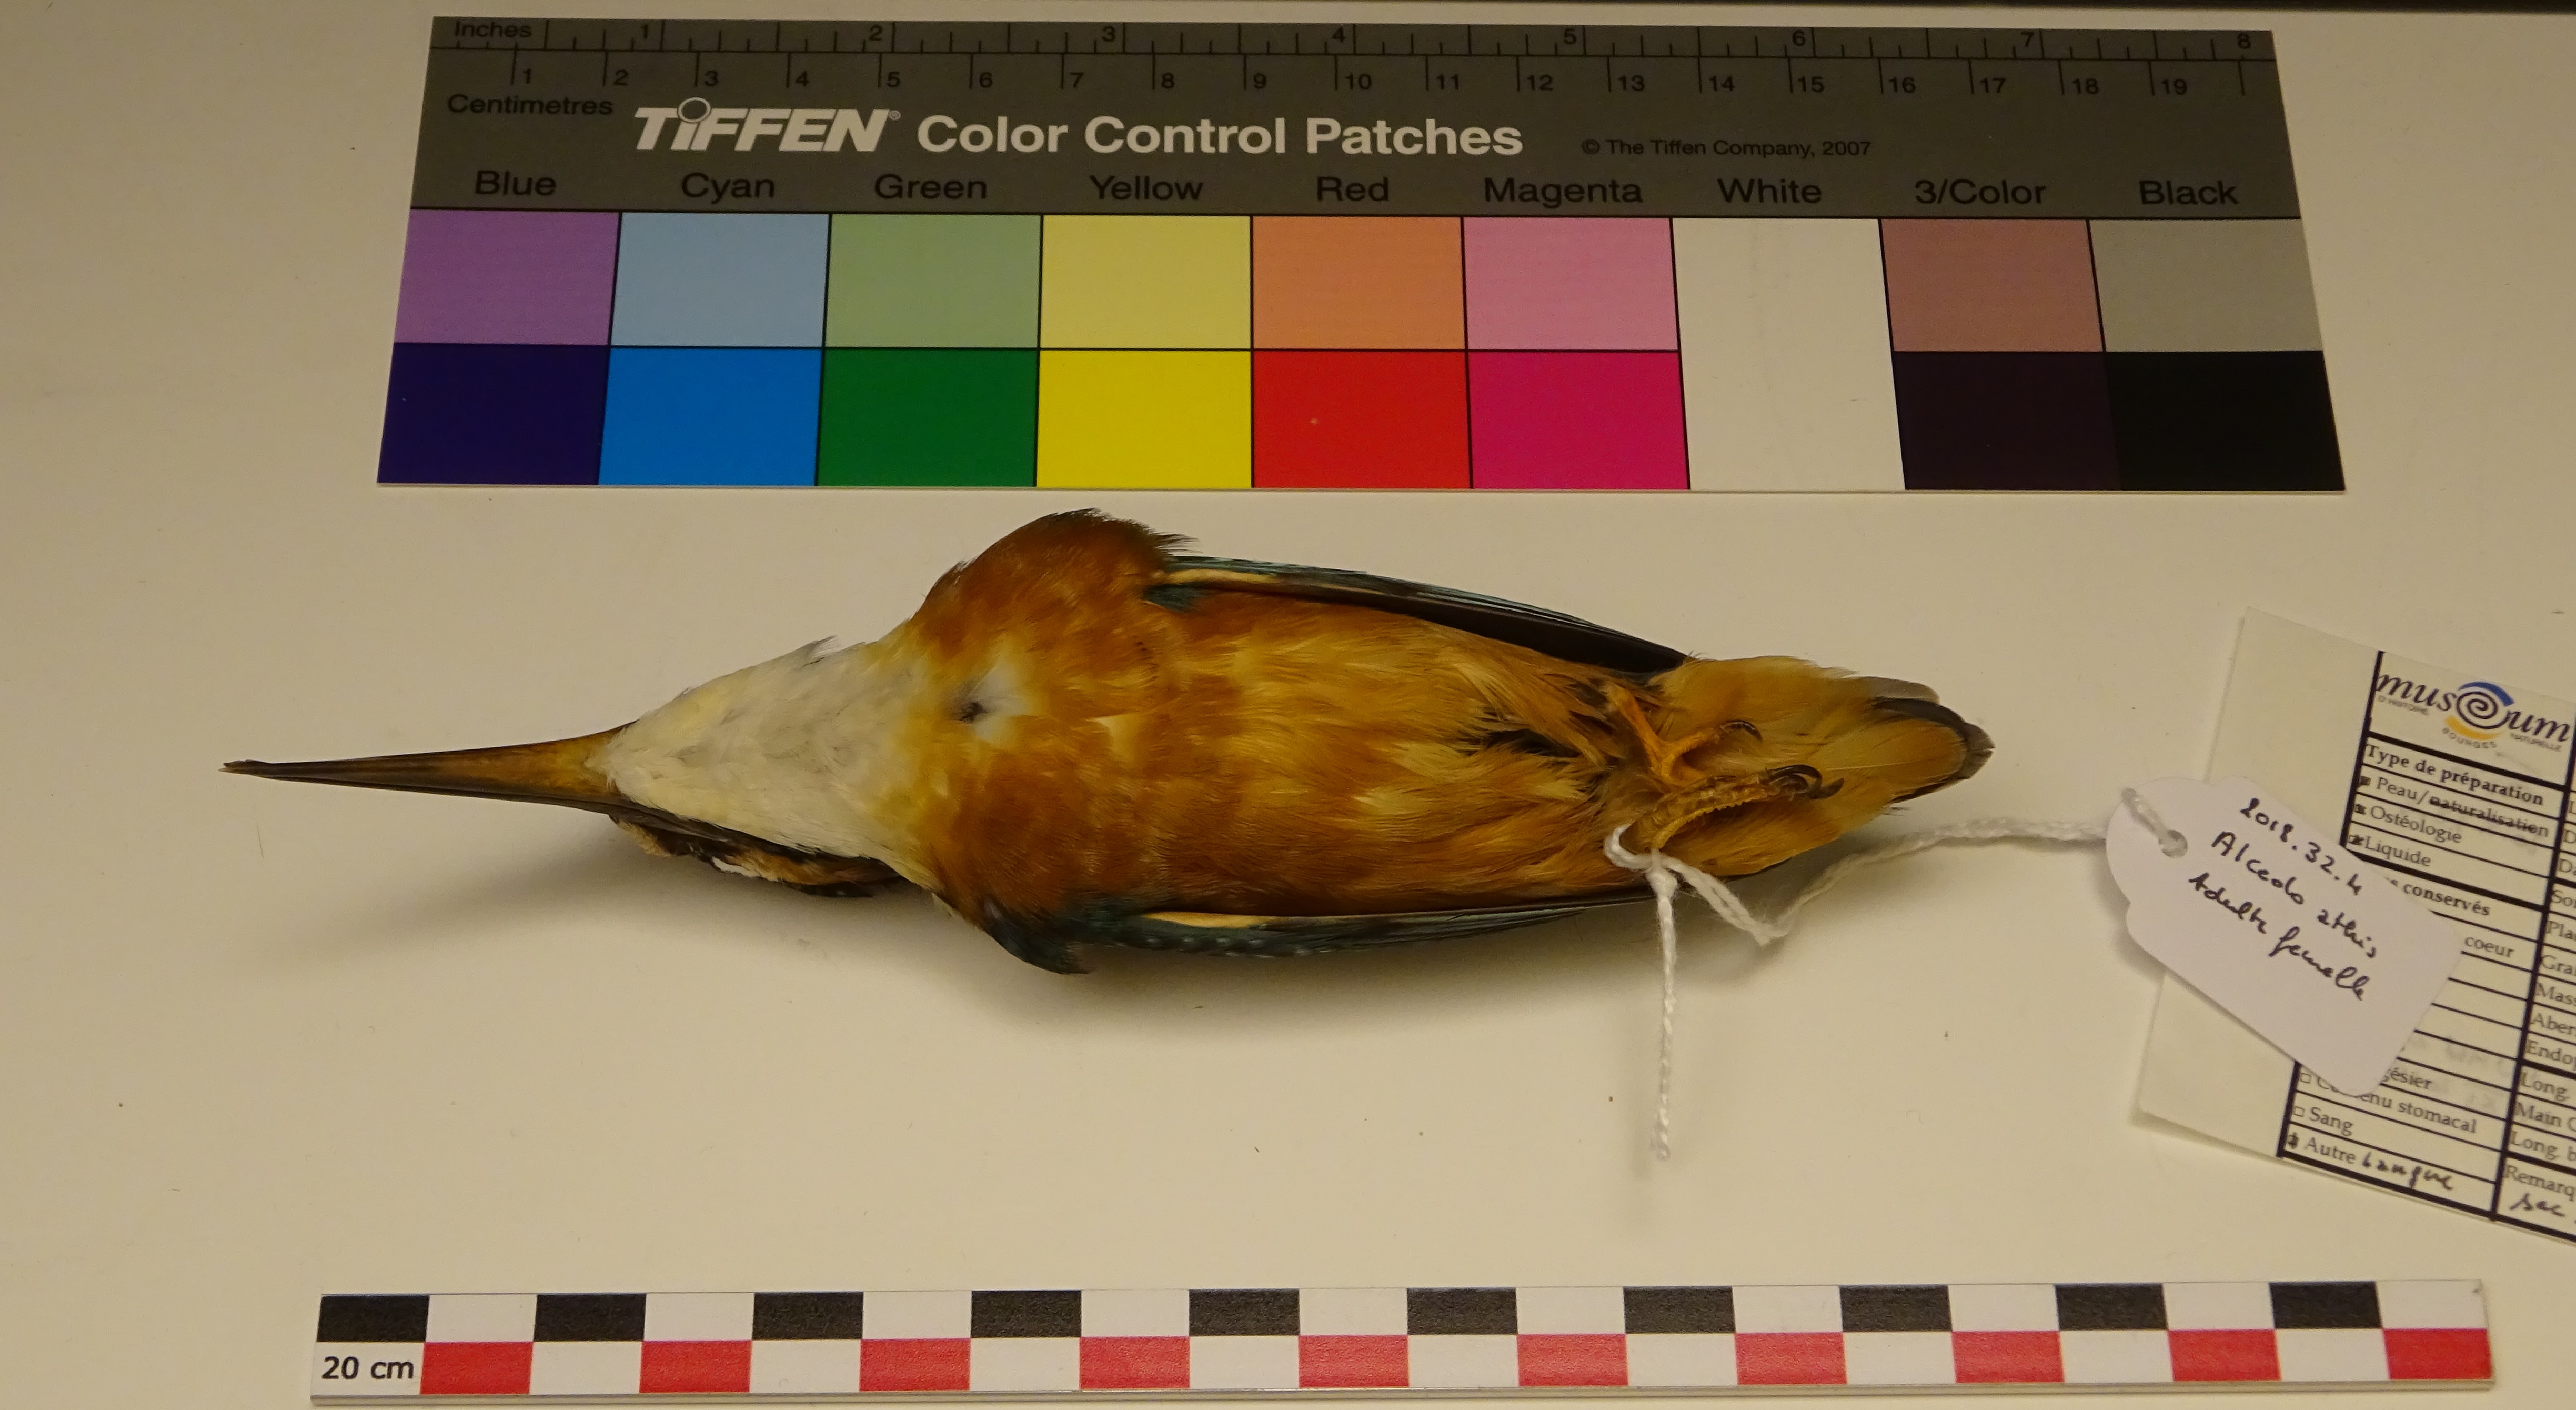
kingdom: Animalia
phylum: Chordata
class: Aves
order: Coraciiformes
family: Alcedinidae
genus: Alcedo
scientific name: Alcedo atthis
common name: Common kingfisher
